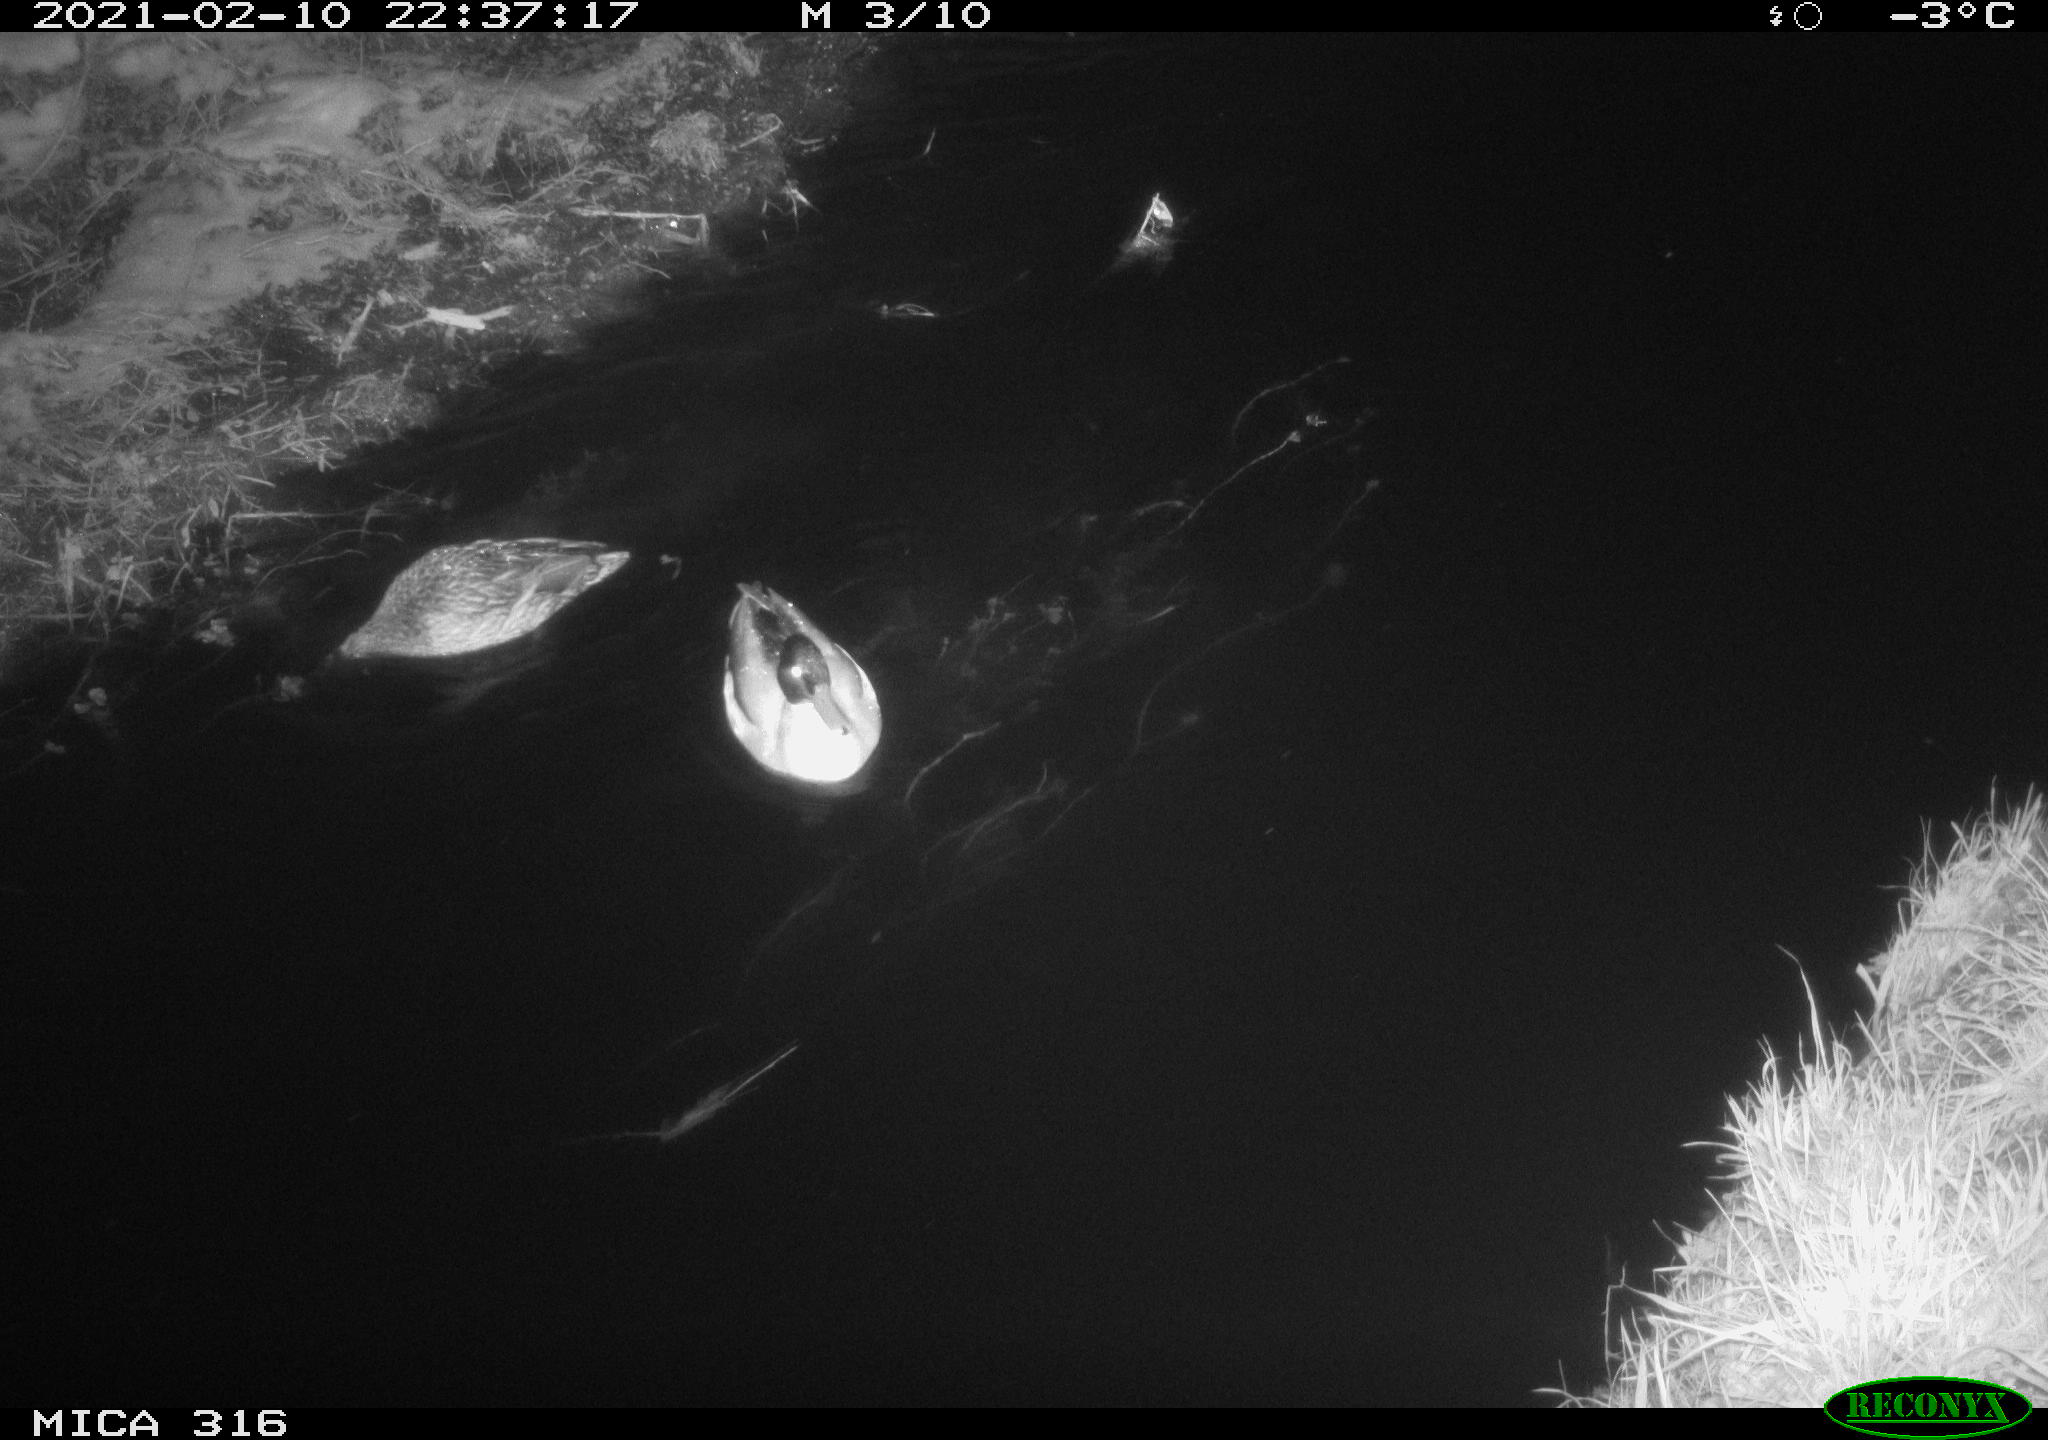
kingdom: Animalia
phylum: Chordata
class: Aves
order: Anseriformes
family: Anatidae
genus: Anas
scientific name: Anas platyrhynchos
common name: Mallard
